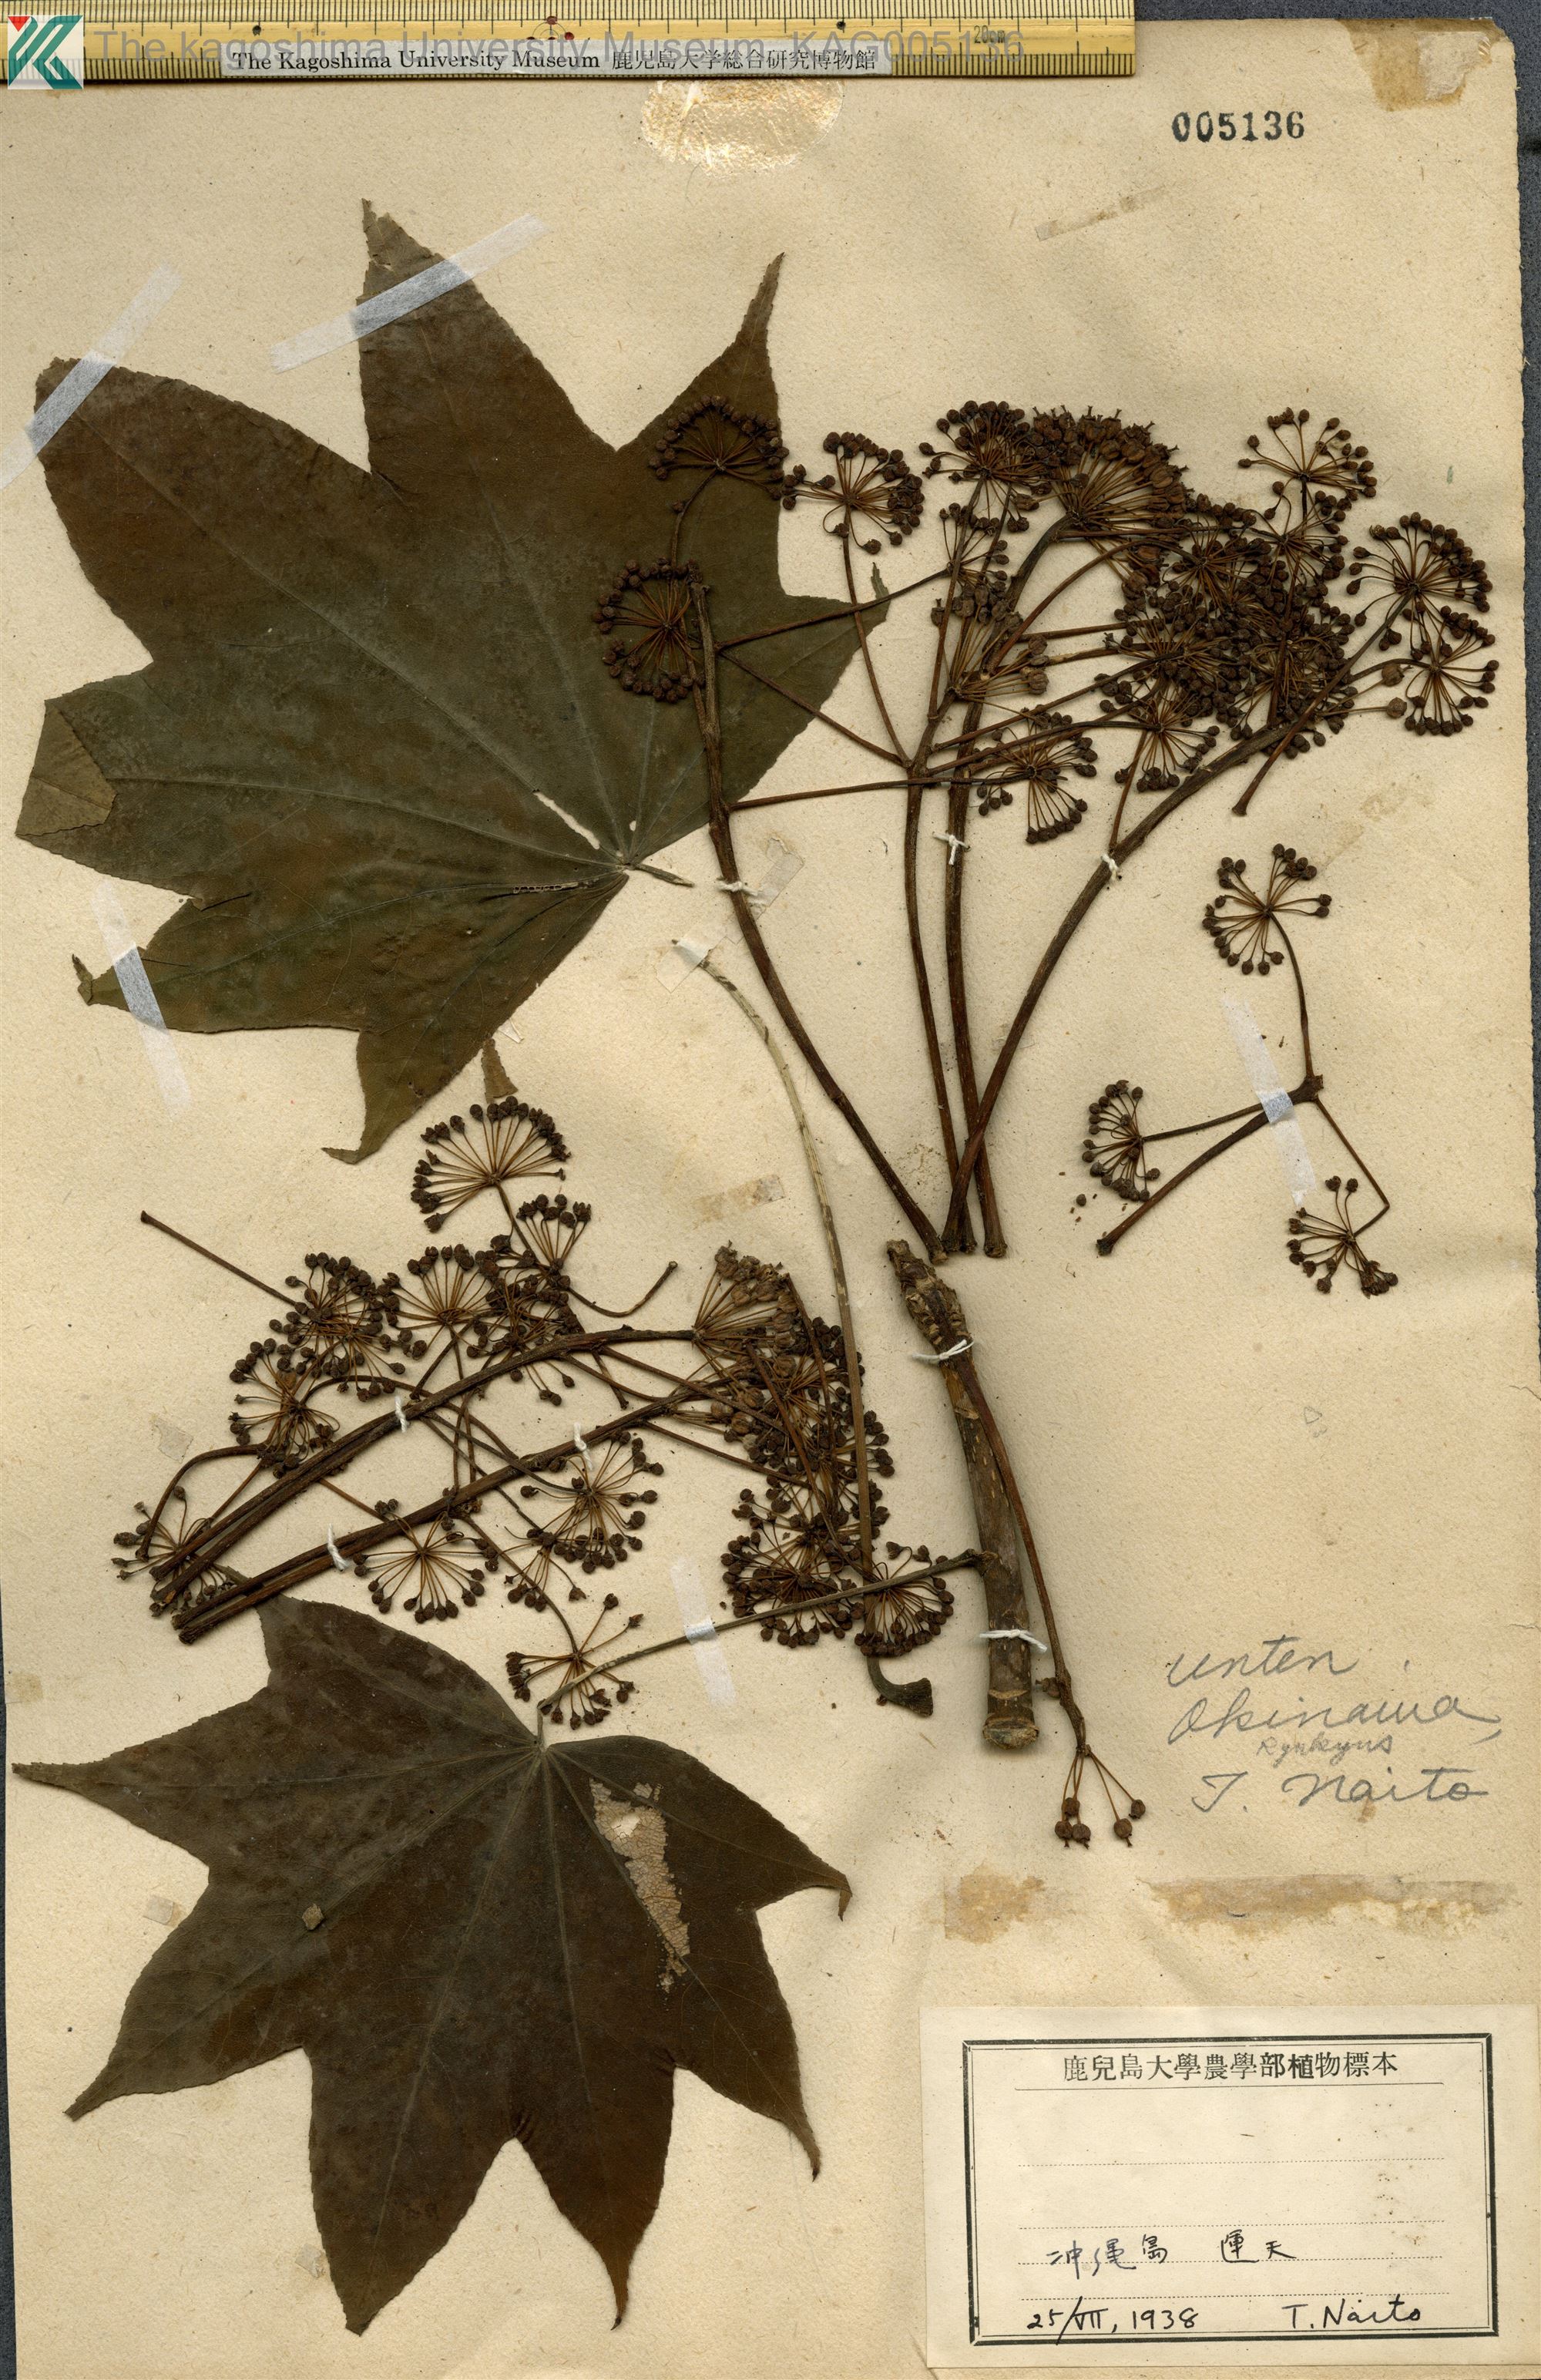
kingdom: Plantae
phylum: Tracheophyta
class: Magnoliopsida
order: Apiales
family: Araliaceae
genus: Kalopanax
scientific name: Kalopanax septemlobus
